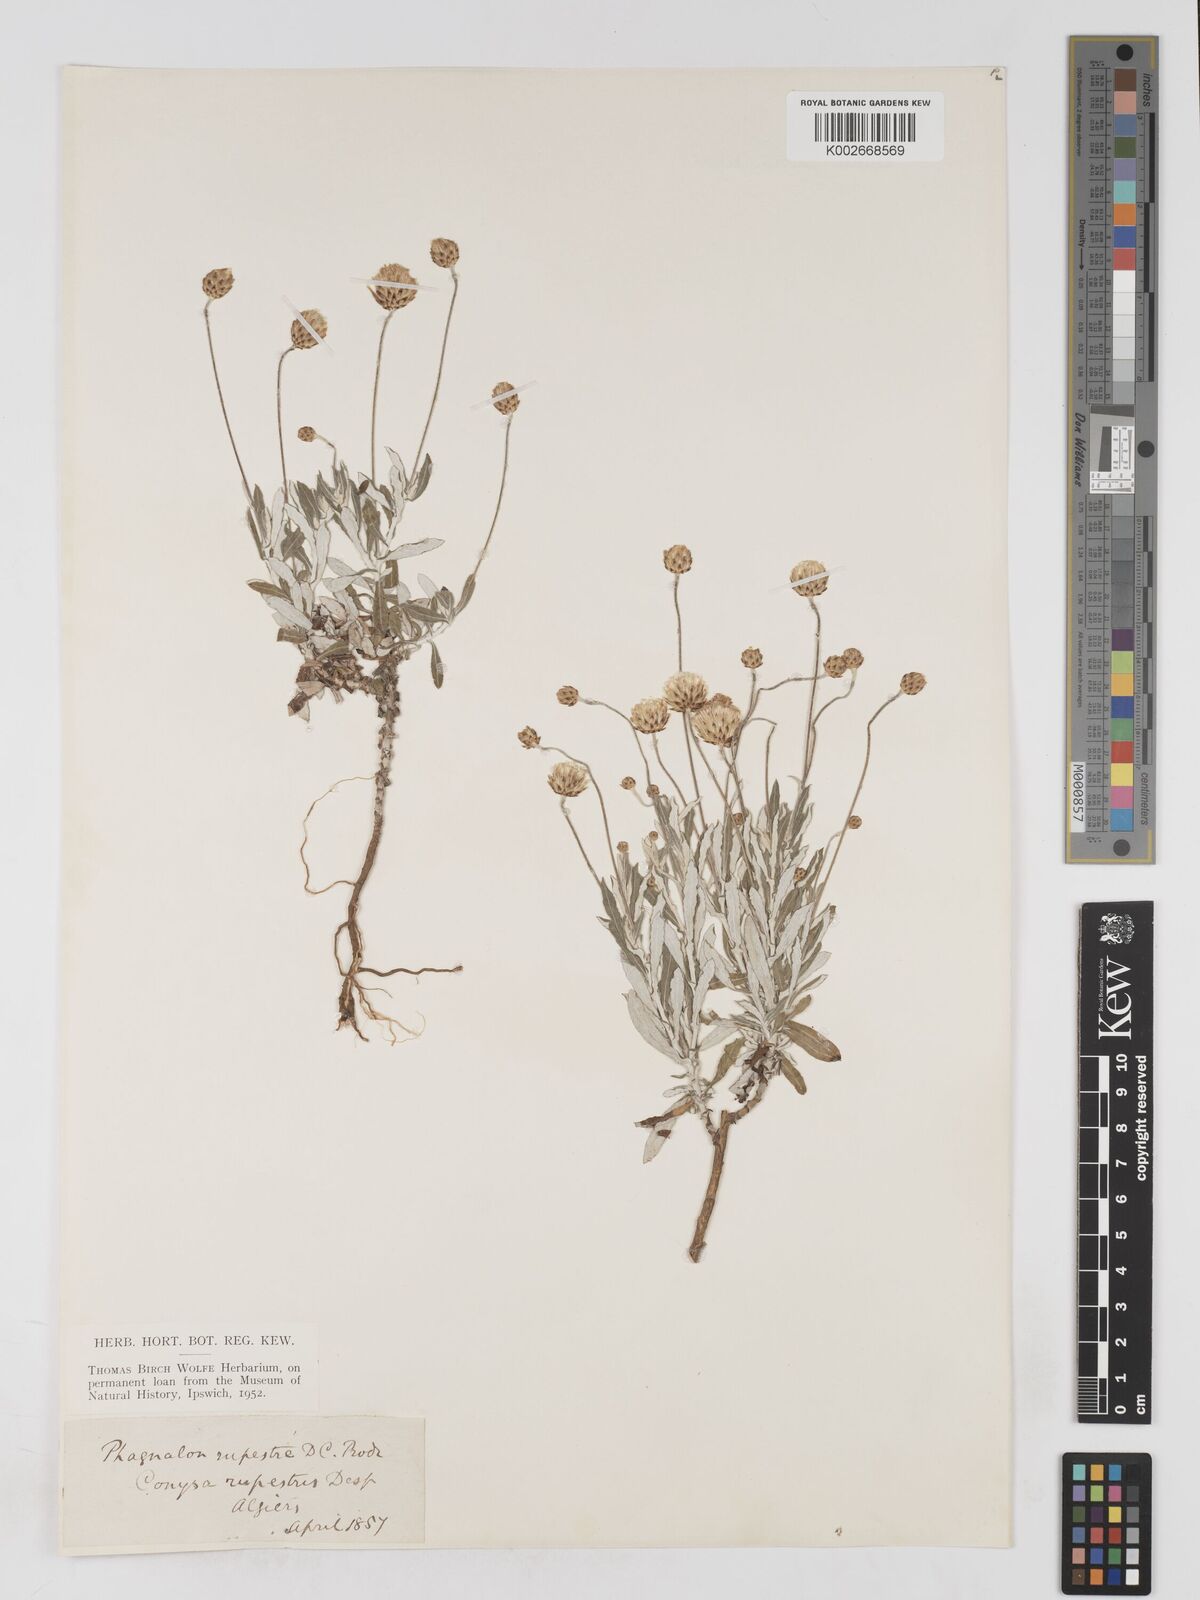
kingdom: Plantae
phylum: Tracheophyta
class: Magnoliopsida
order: Asterales
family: Asteraceae
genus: Phagnalon
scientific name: Phagnalon rupestre
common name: Rock phagnalon
